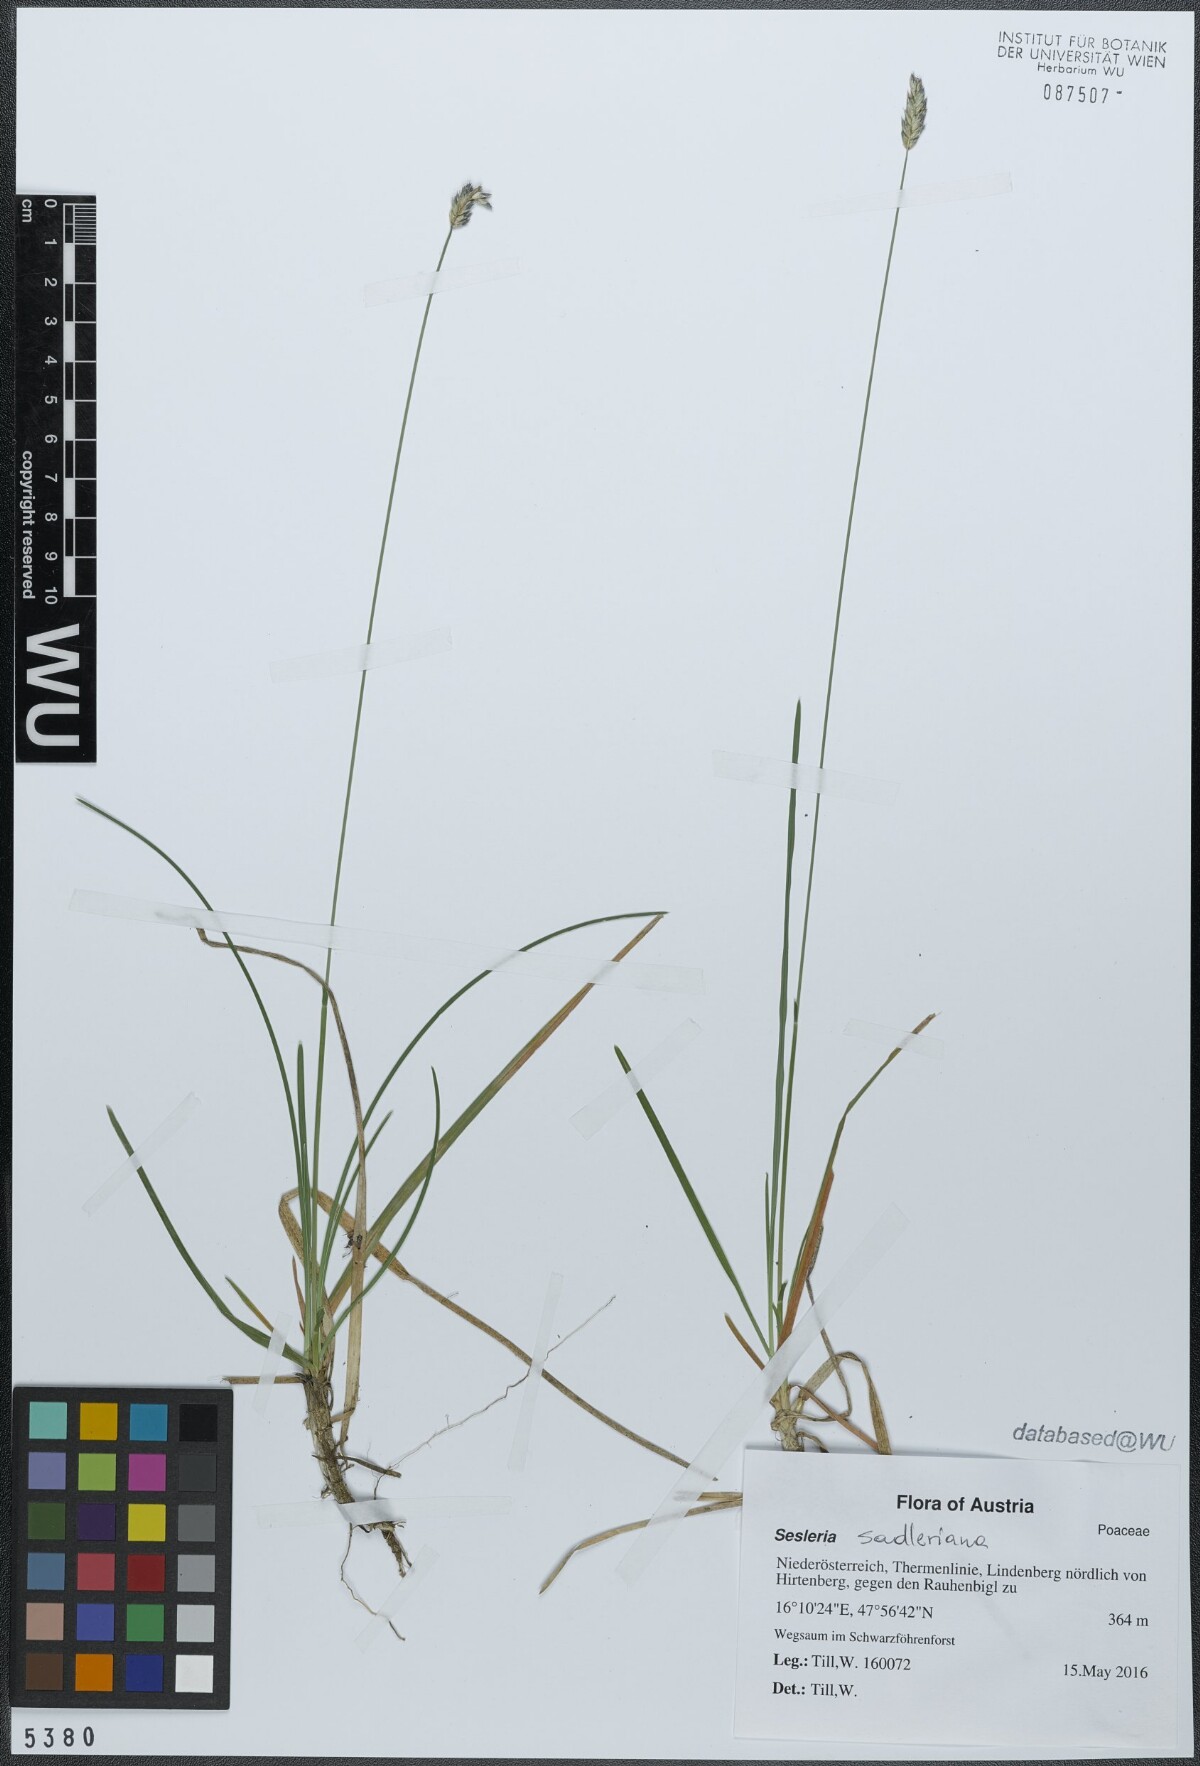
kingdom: Plantae
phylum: Tracheophyta
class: Liliopsida
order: Poales
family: Poaceae
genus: Sesleria
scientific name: Sesleria sadleriana
